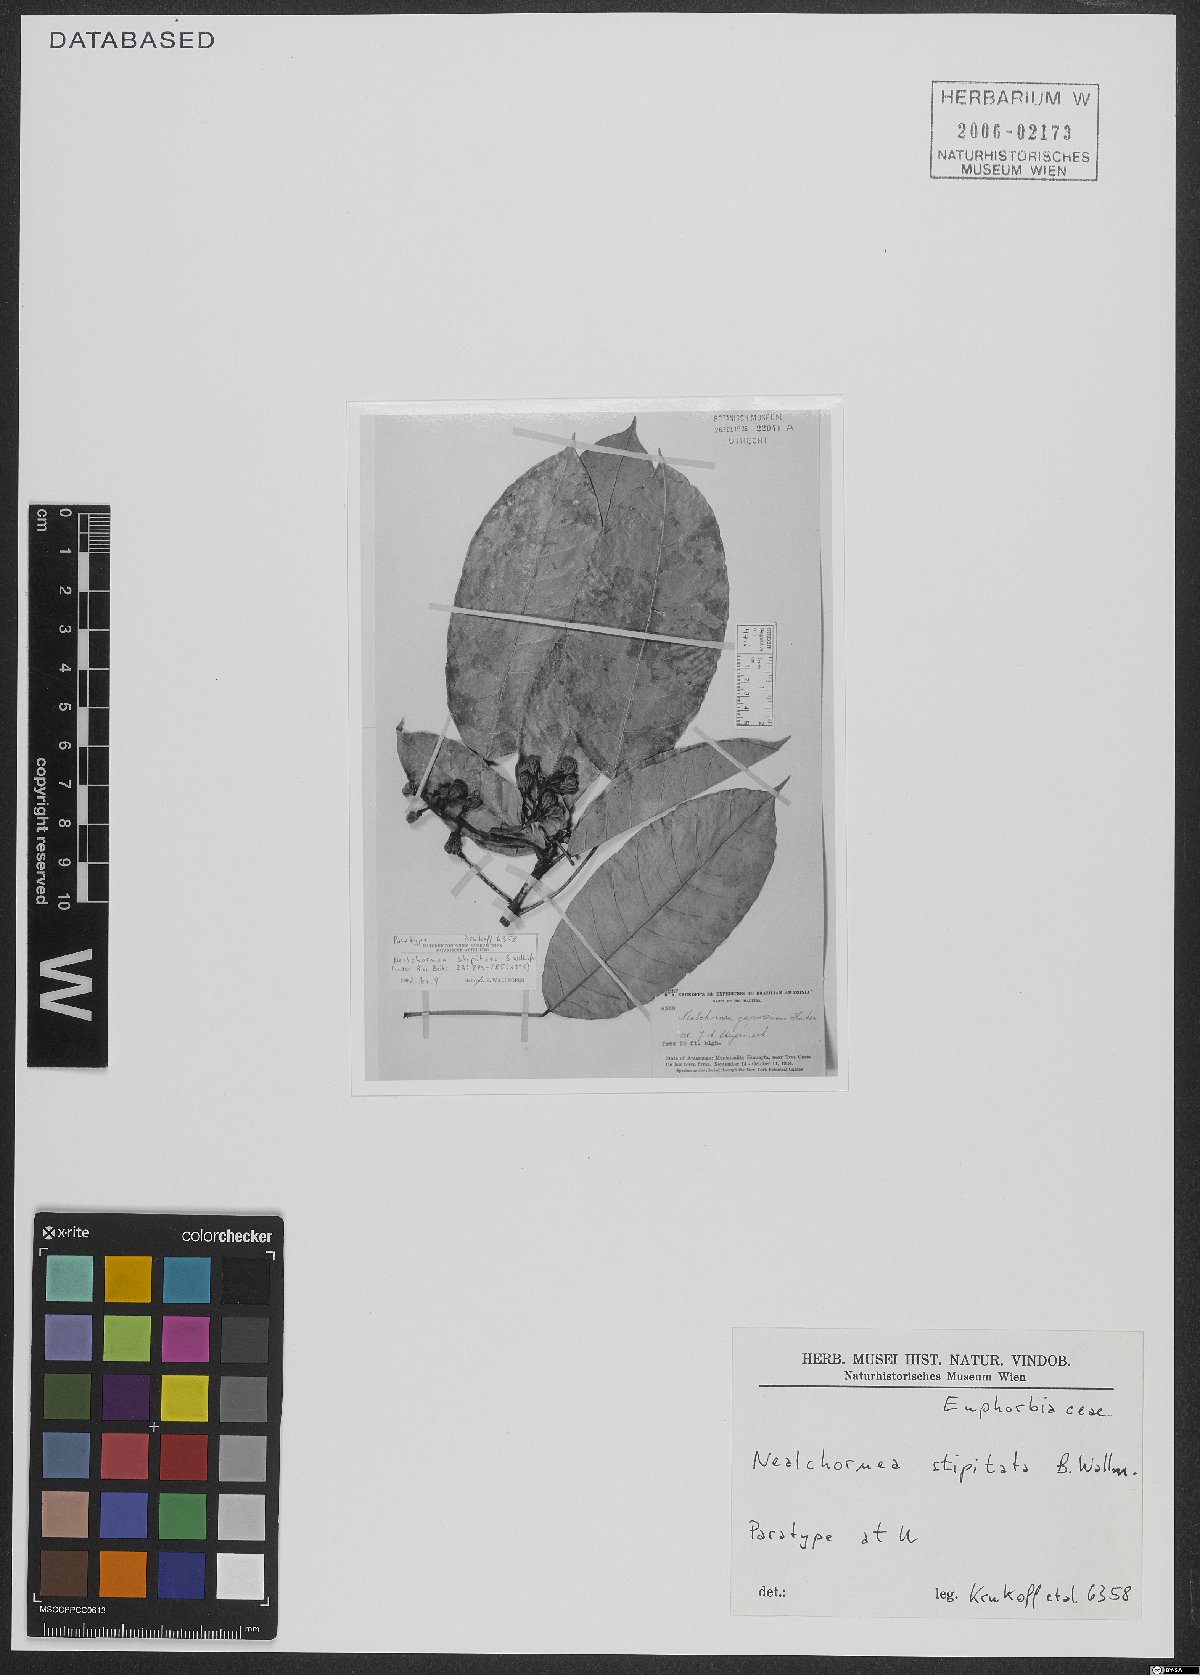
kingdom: Plantae
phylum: Tracheophyta
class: Magnoliopsida
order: Malpighiales
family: Euphorbiaceae
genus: Nealchornea
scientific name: Nealchornea stipitata
